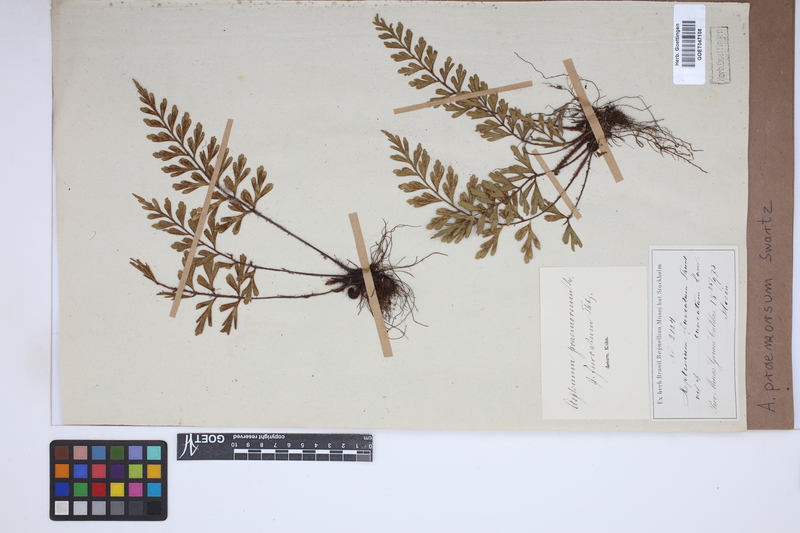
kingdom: Plantae
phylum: Tracheophyta
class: Polypodiopsida
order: Polypodiales
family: Aspleniaceae
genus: Asplenium
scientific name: Asplenium praemorsum
